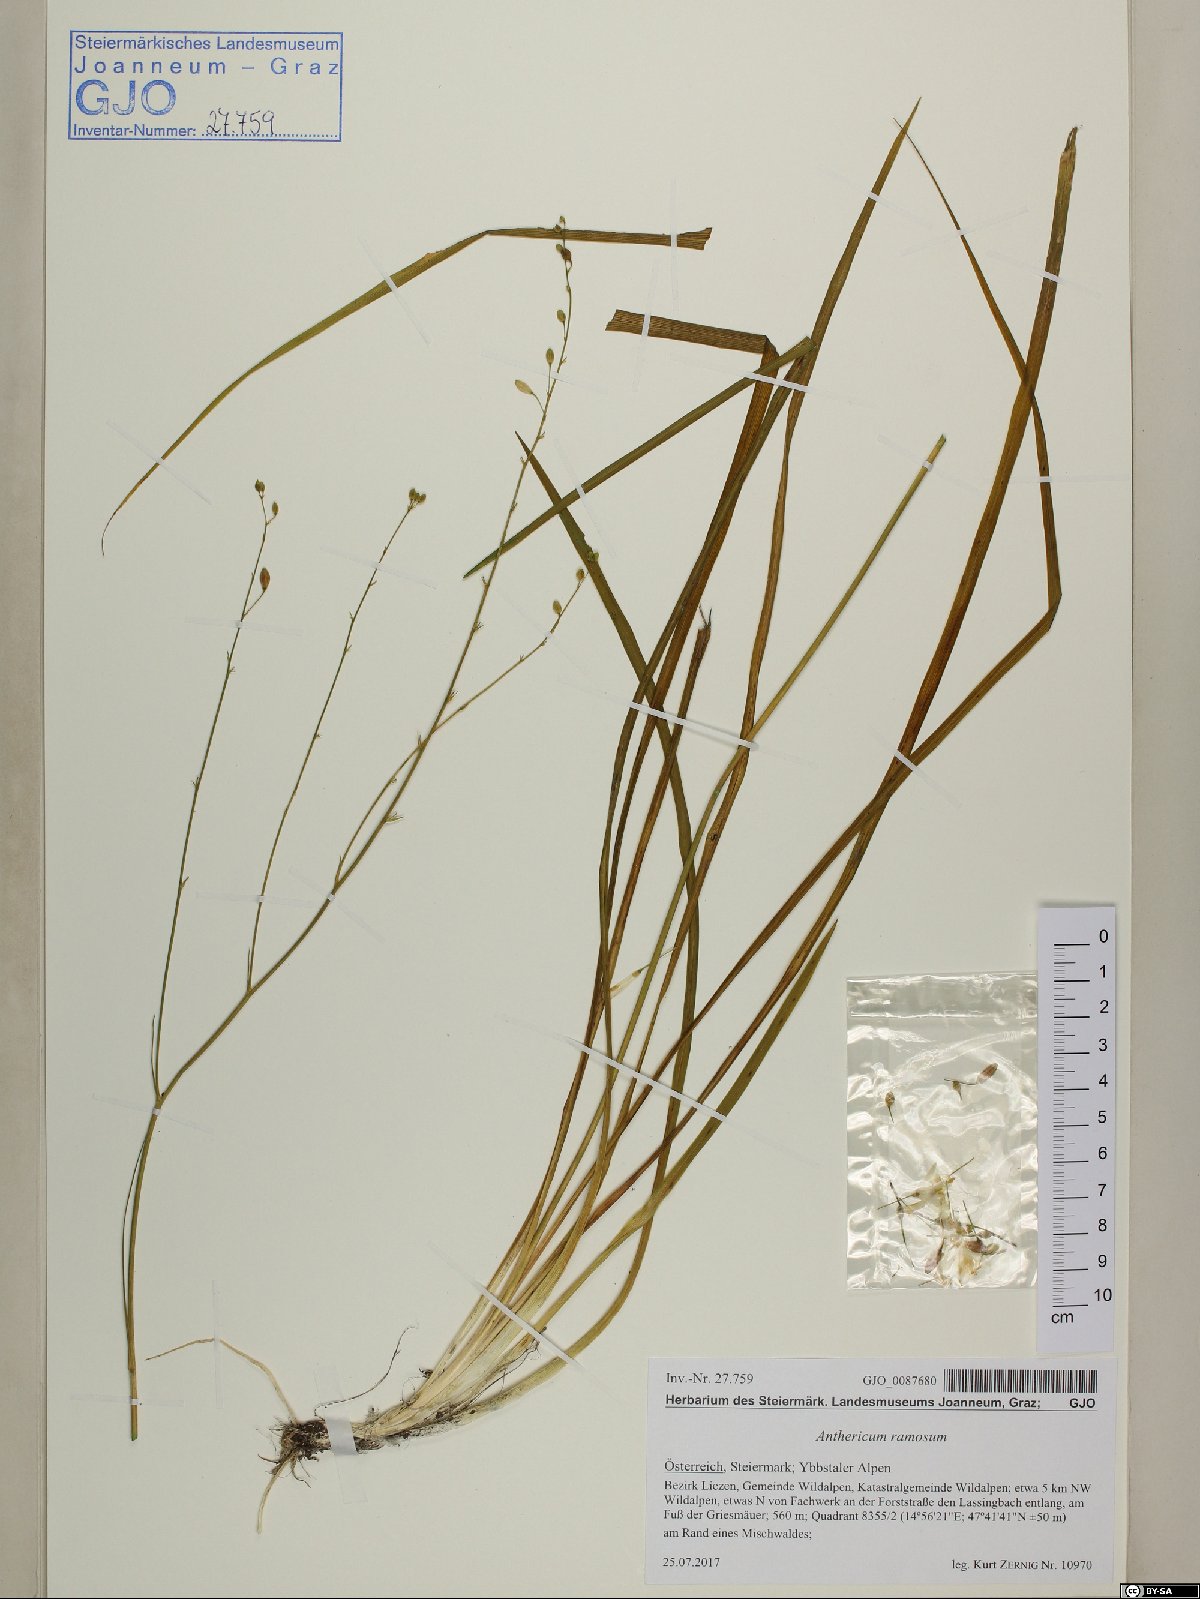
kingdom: Plantae
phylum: Tracheophyta
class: Liliopsida
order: Asparagales
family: Asparagaceae
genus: Anthericum
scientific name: Anthericum ramosum
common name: Branched st. bernard's-lily
